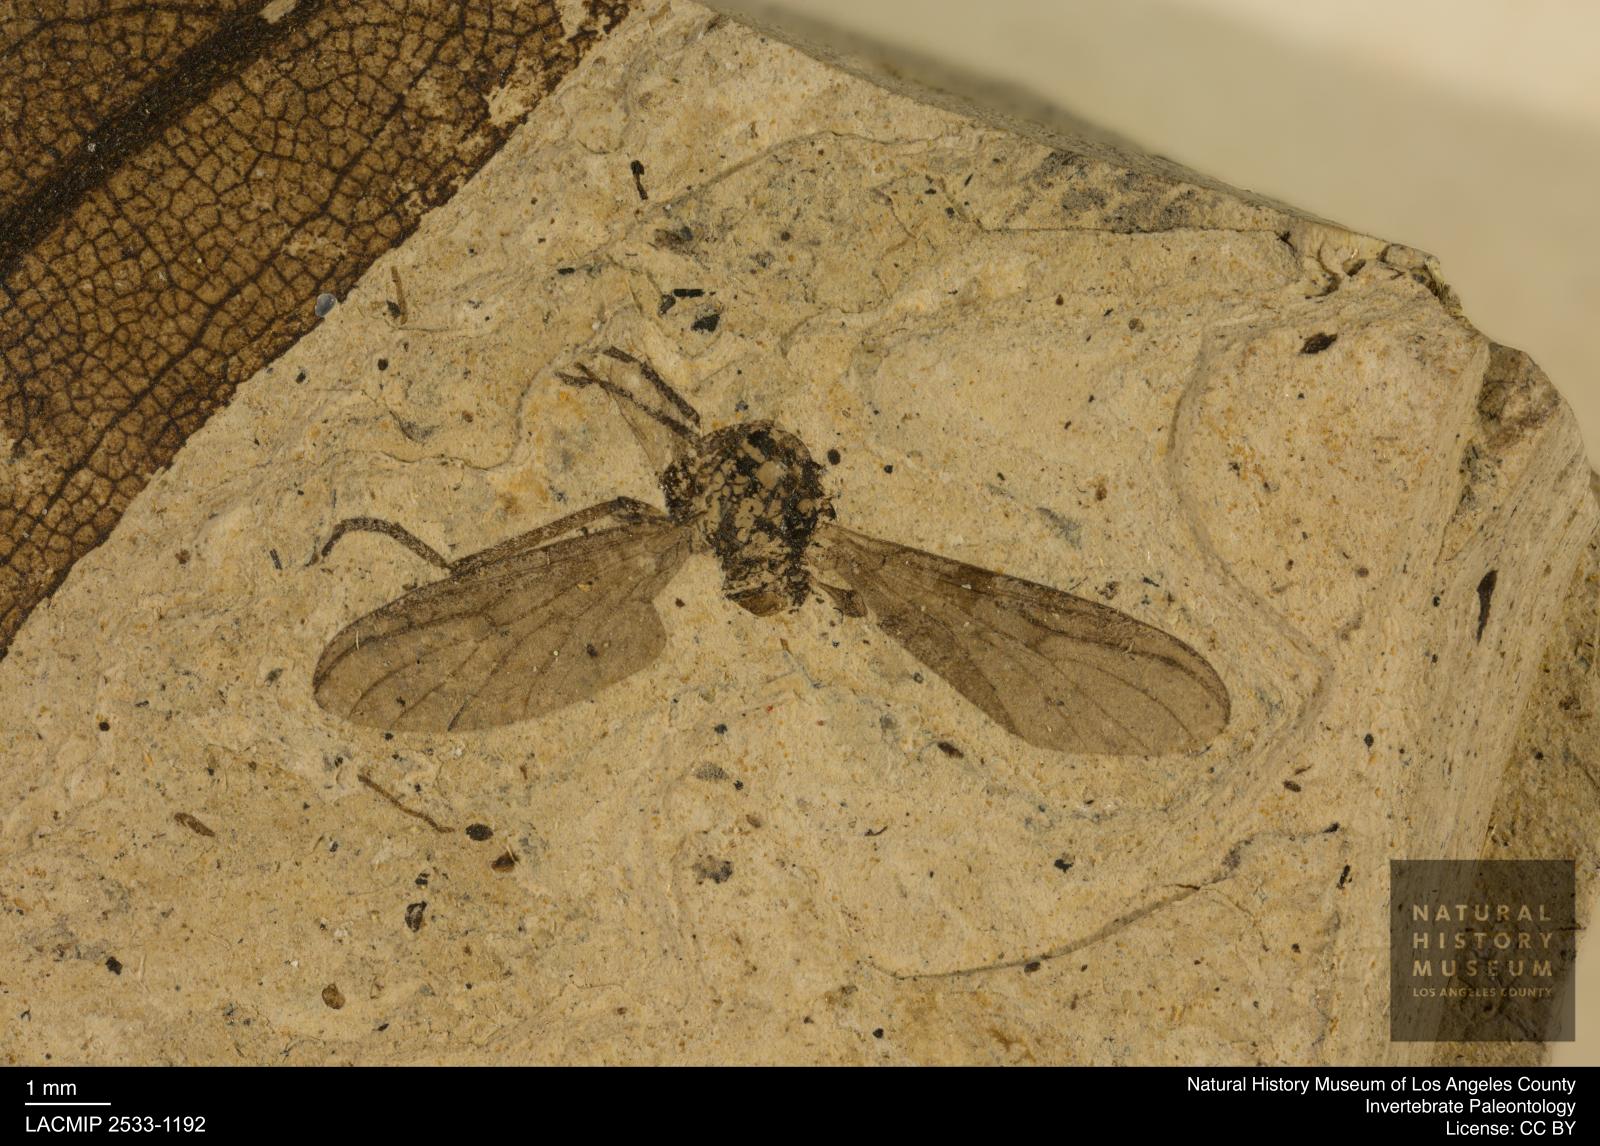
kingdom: Animalia
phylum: Arthropoda
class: Insecta
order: Diptera
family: Bibionidae
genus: Plecia
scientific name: Plecia stygia
